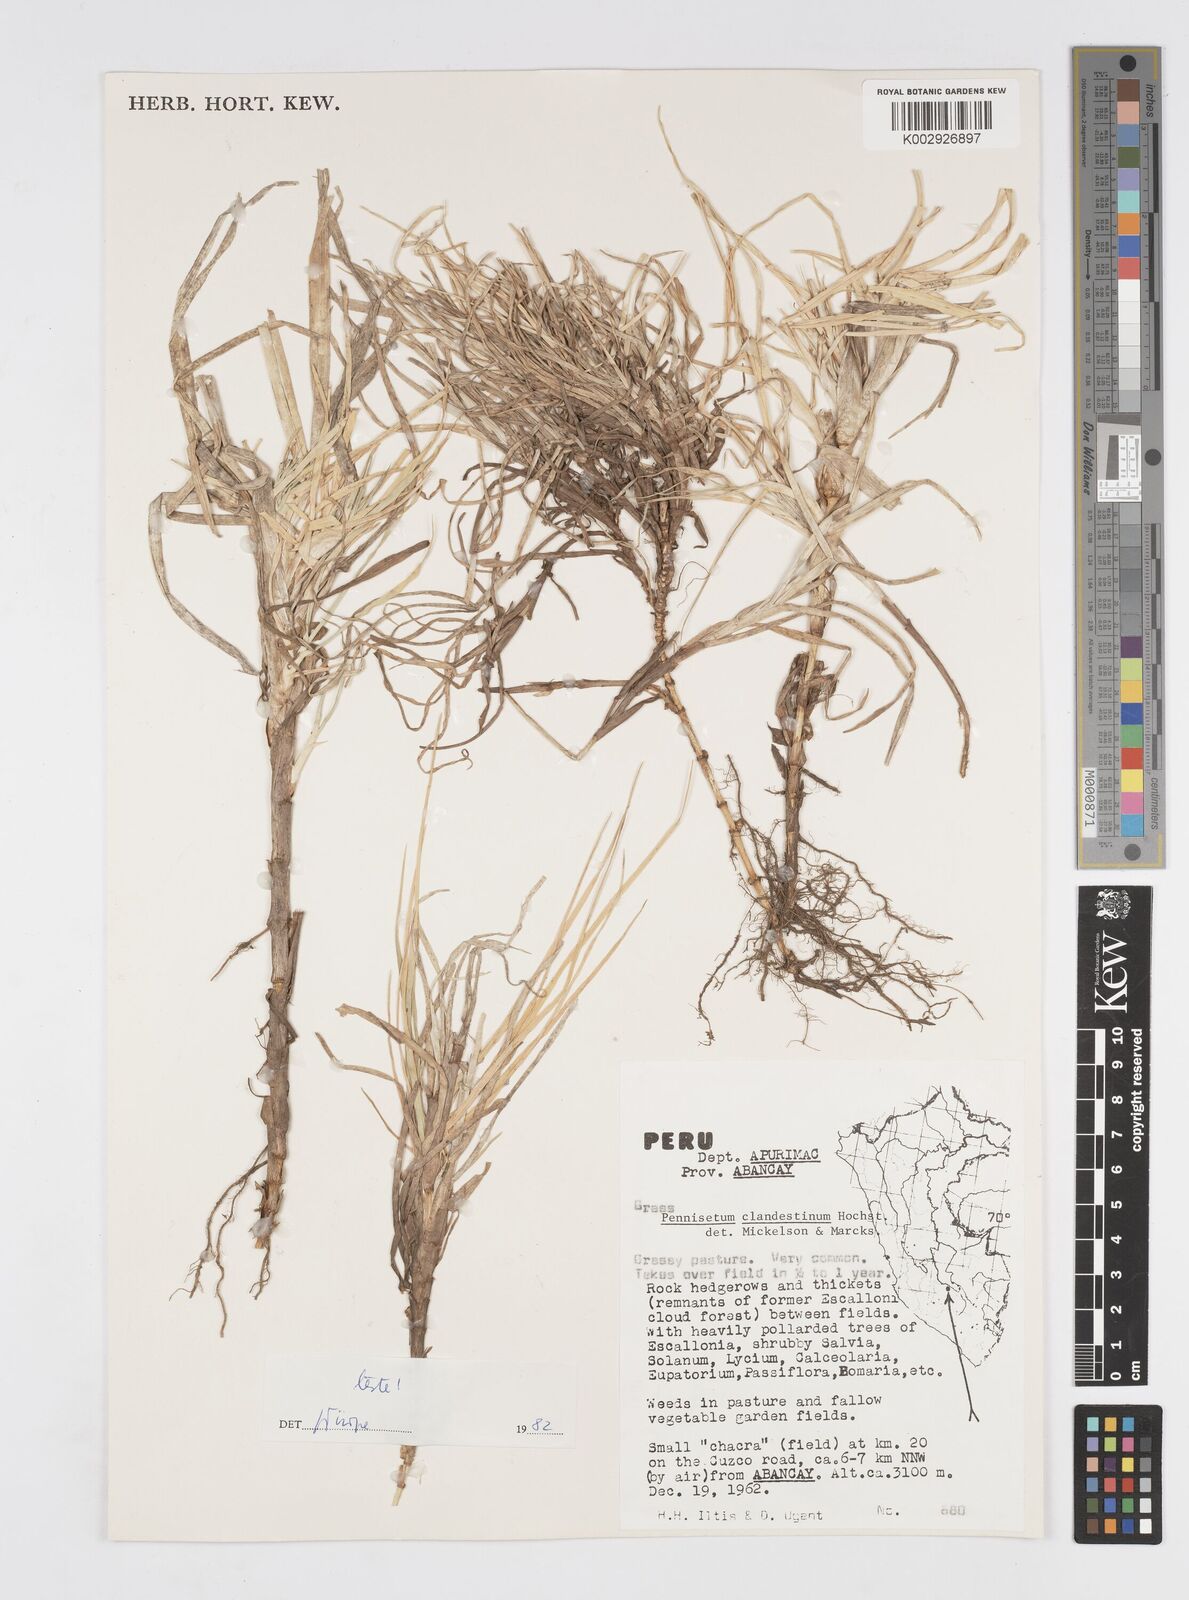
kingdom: Plantae
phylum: Tracheophyta
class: Liliopsida
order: Poales
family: Poaceae
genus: Cenchrus
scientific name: Cenchrus clandestinus
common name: Kikuyugrass
